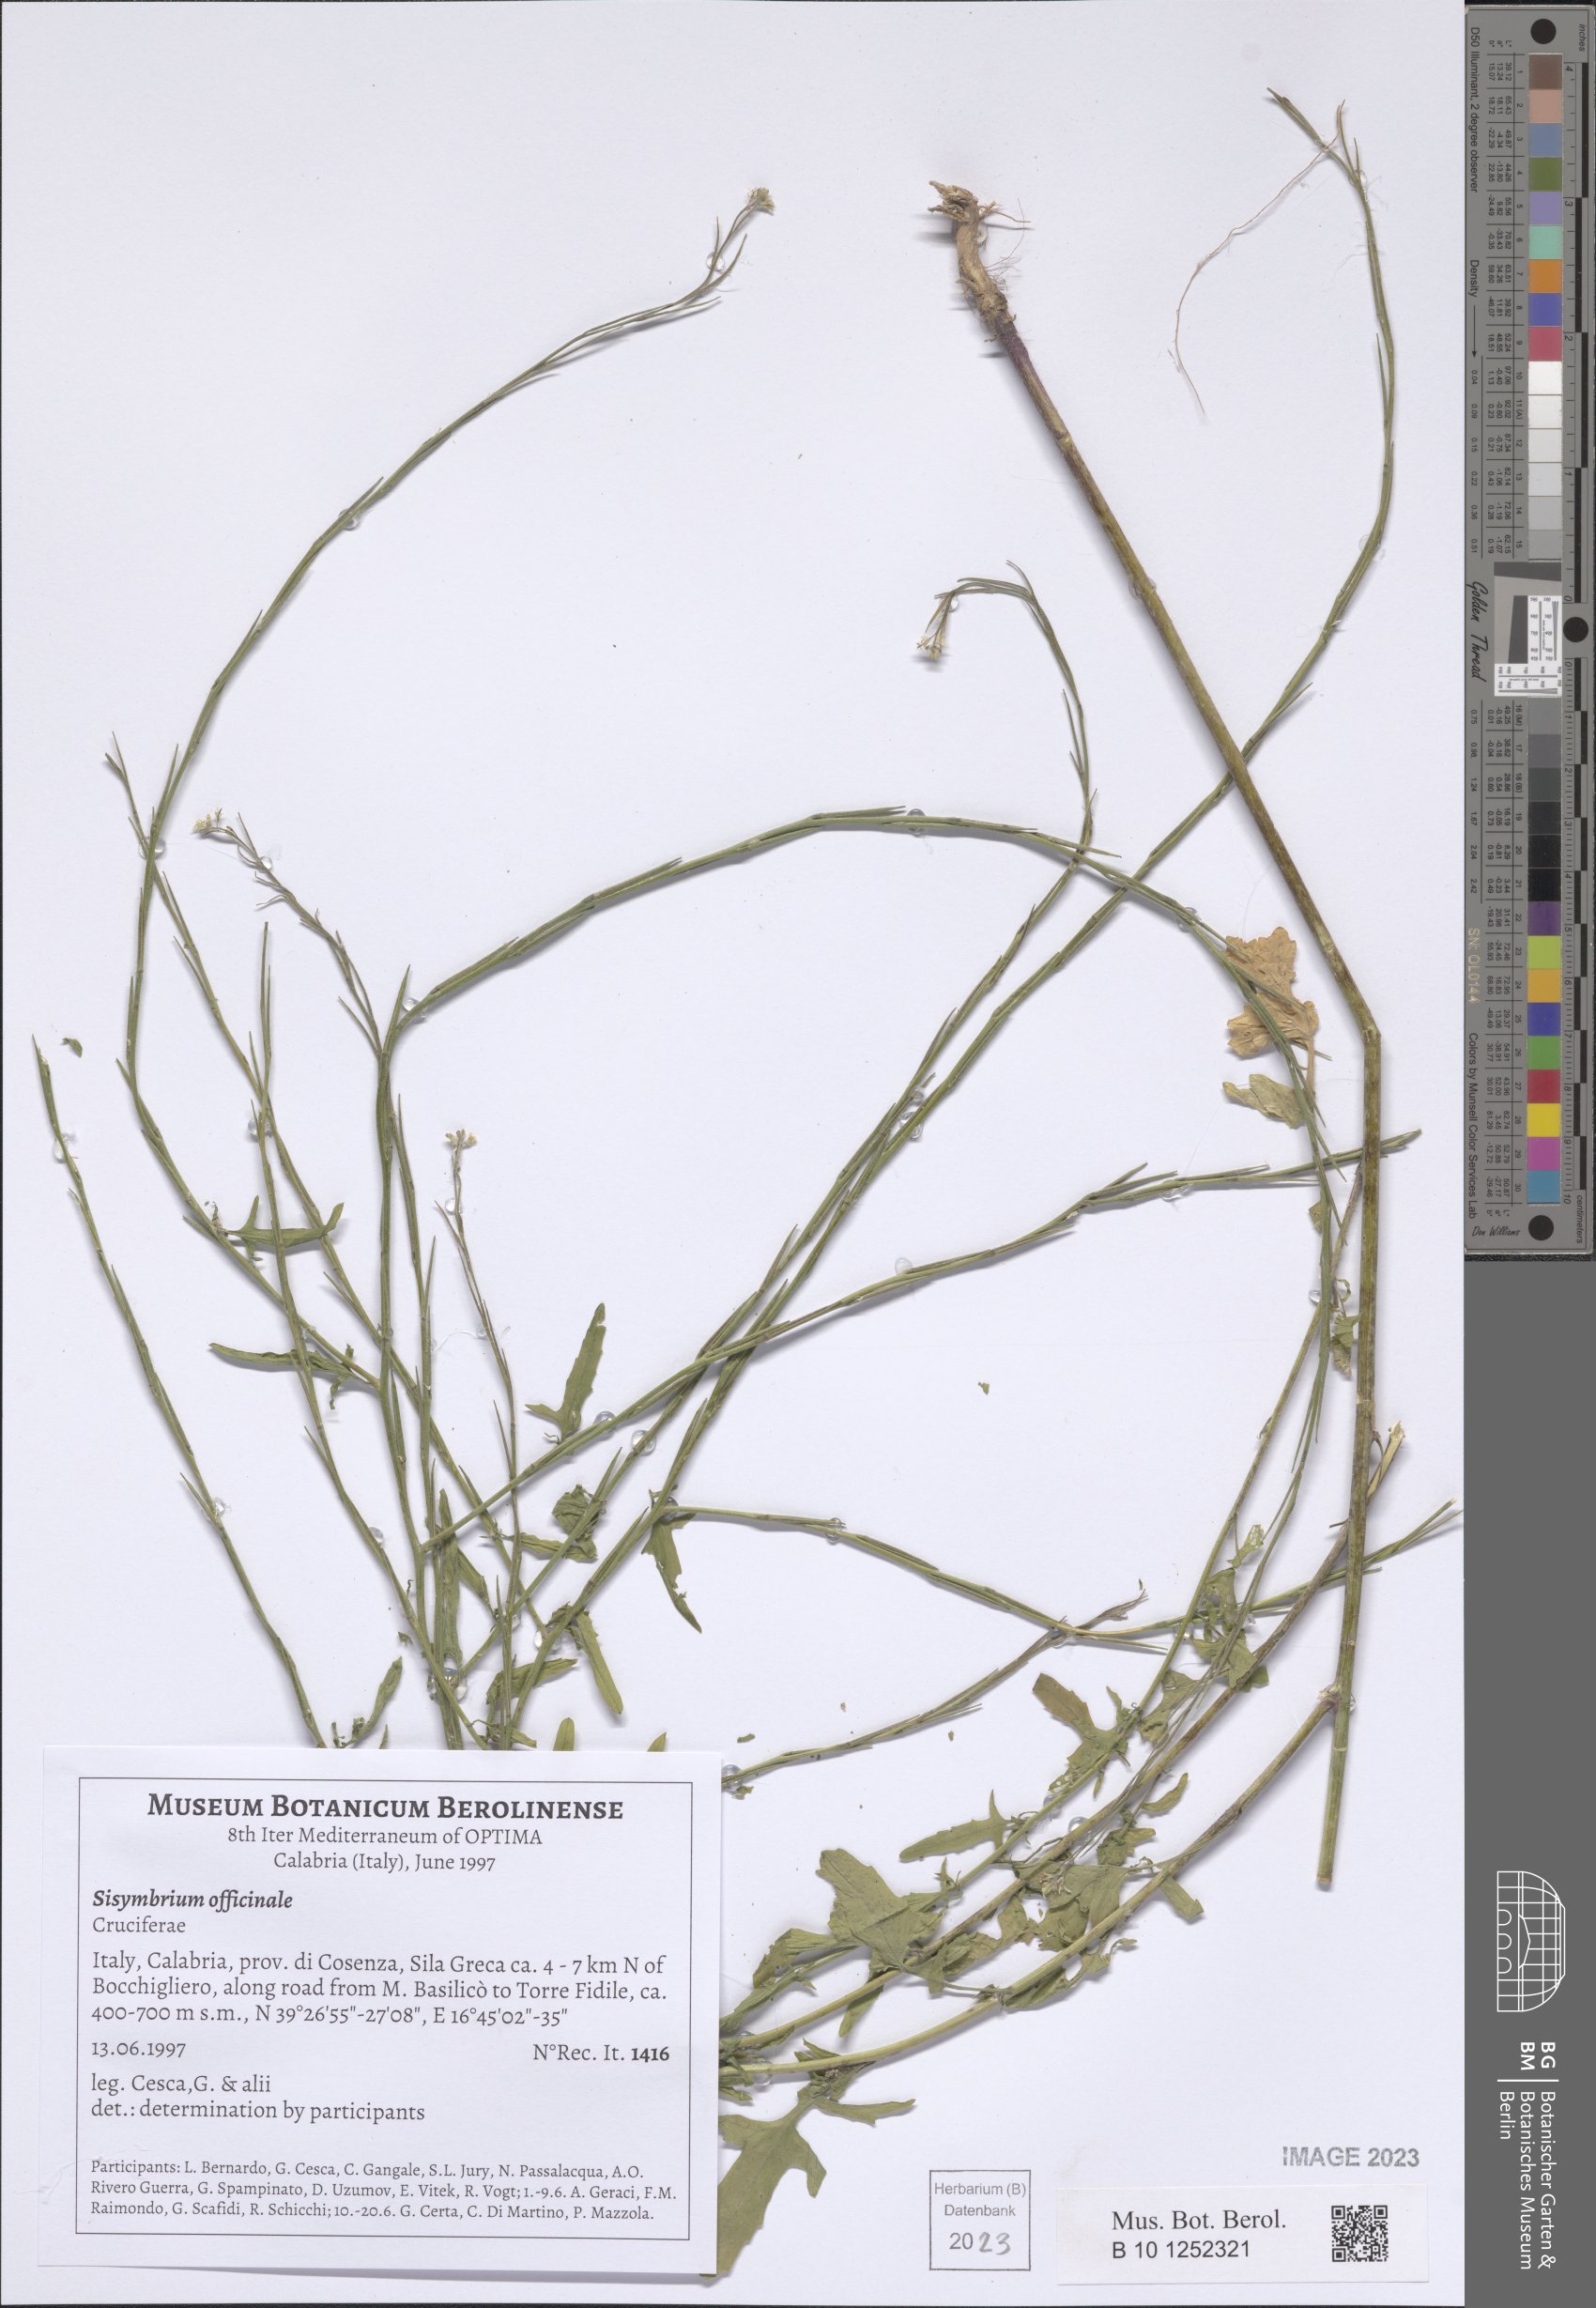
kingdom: Plantae
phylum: Tracheophyta
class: Magnoliopsida
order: Brassicales
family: Brassicaceae
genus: Sisymbrium
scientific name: Sisymbrium officinale
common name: Hedge mustard
